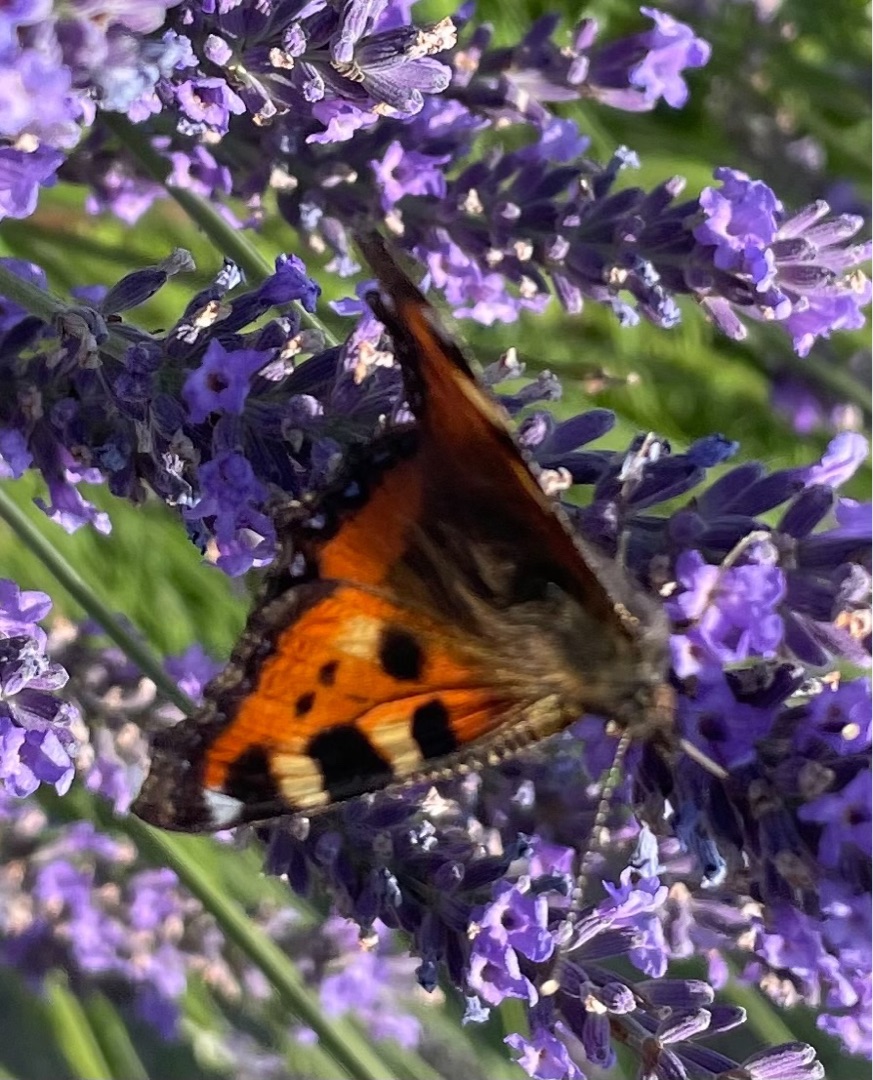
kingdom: Animalia
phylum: Arthropoda
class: Insecta
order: Lepidoptera
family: Nymphalidae
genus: Aglais
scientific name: Aglais urticae
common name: Nældens takvinge
